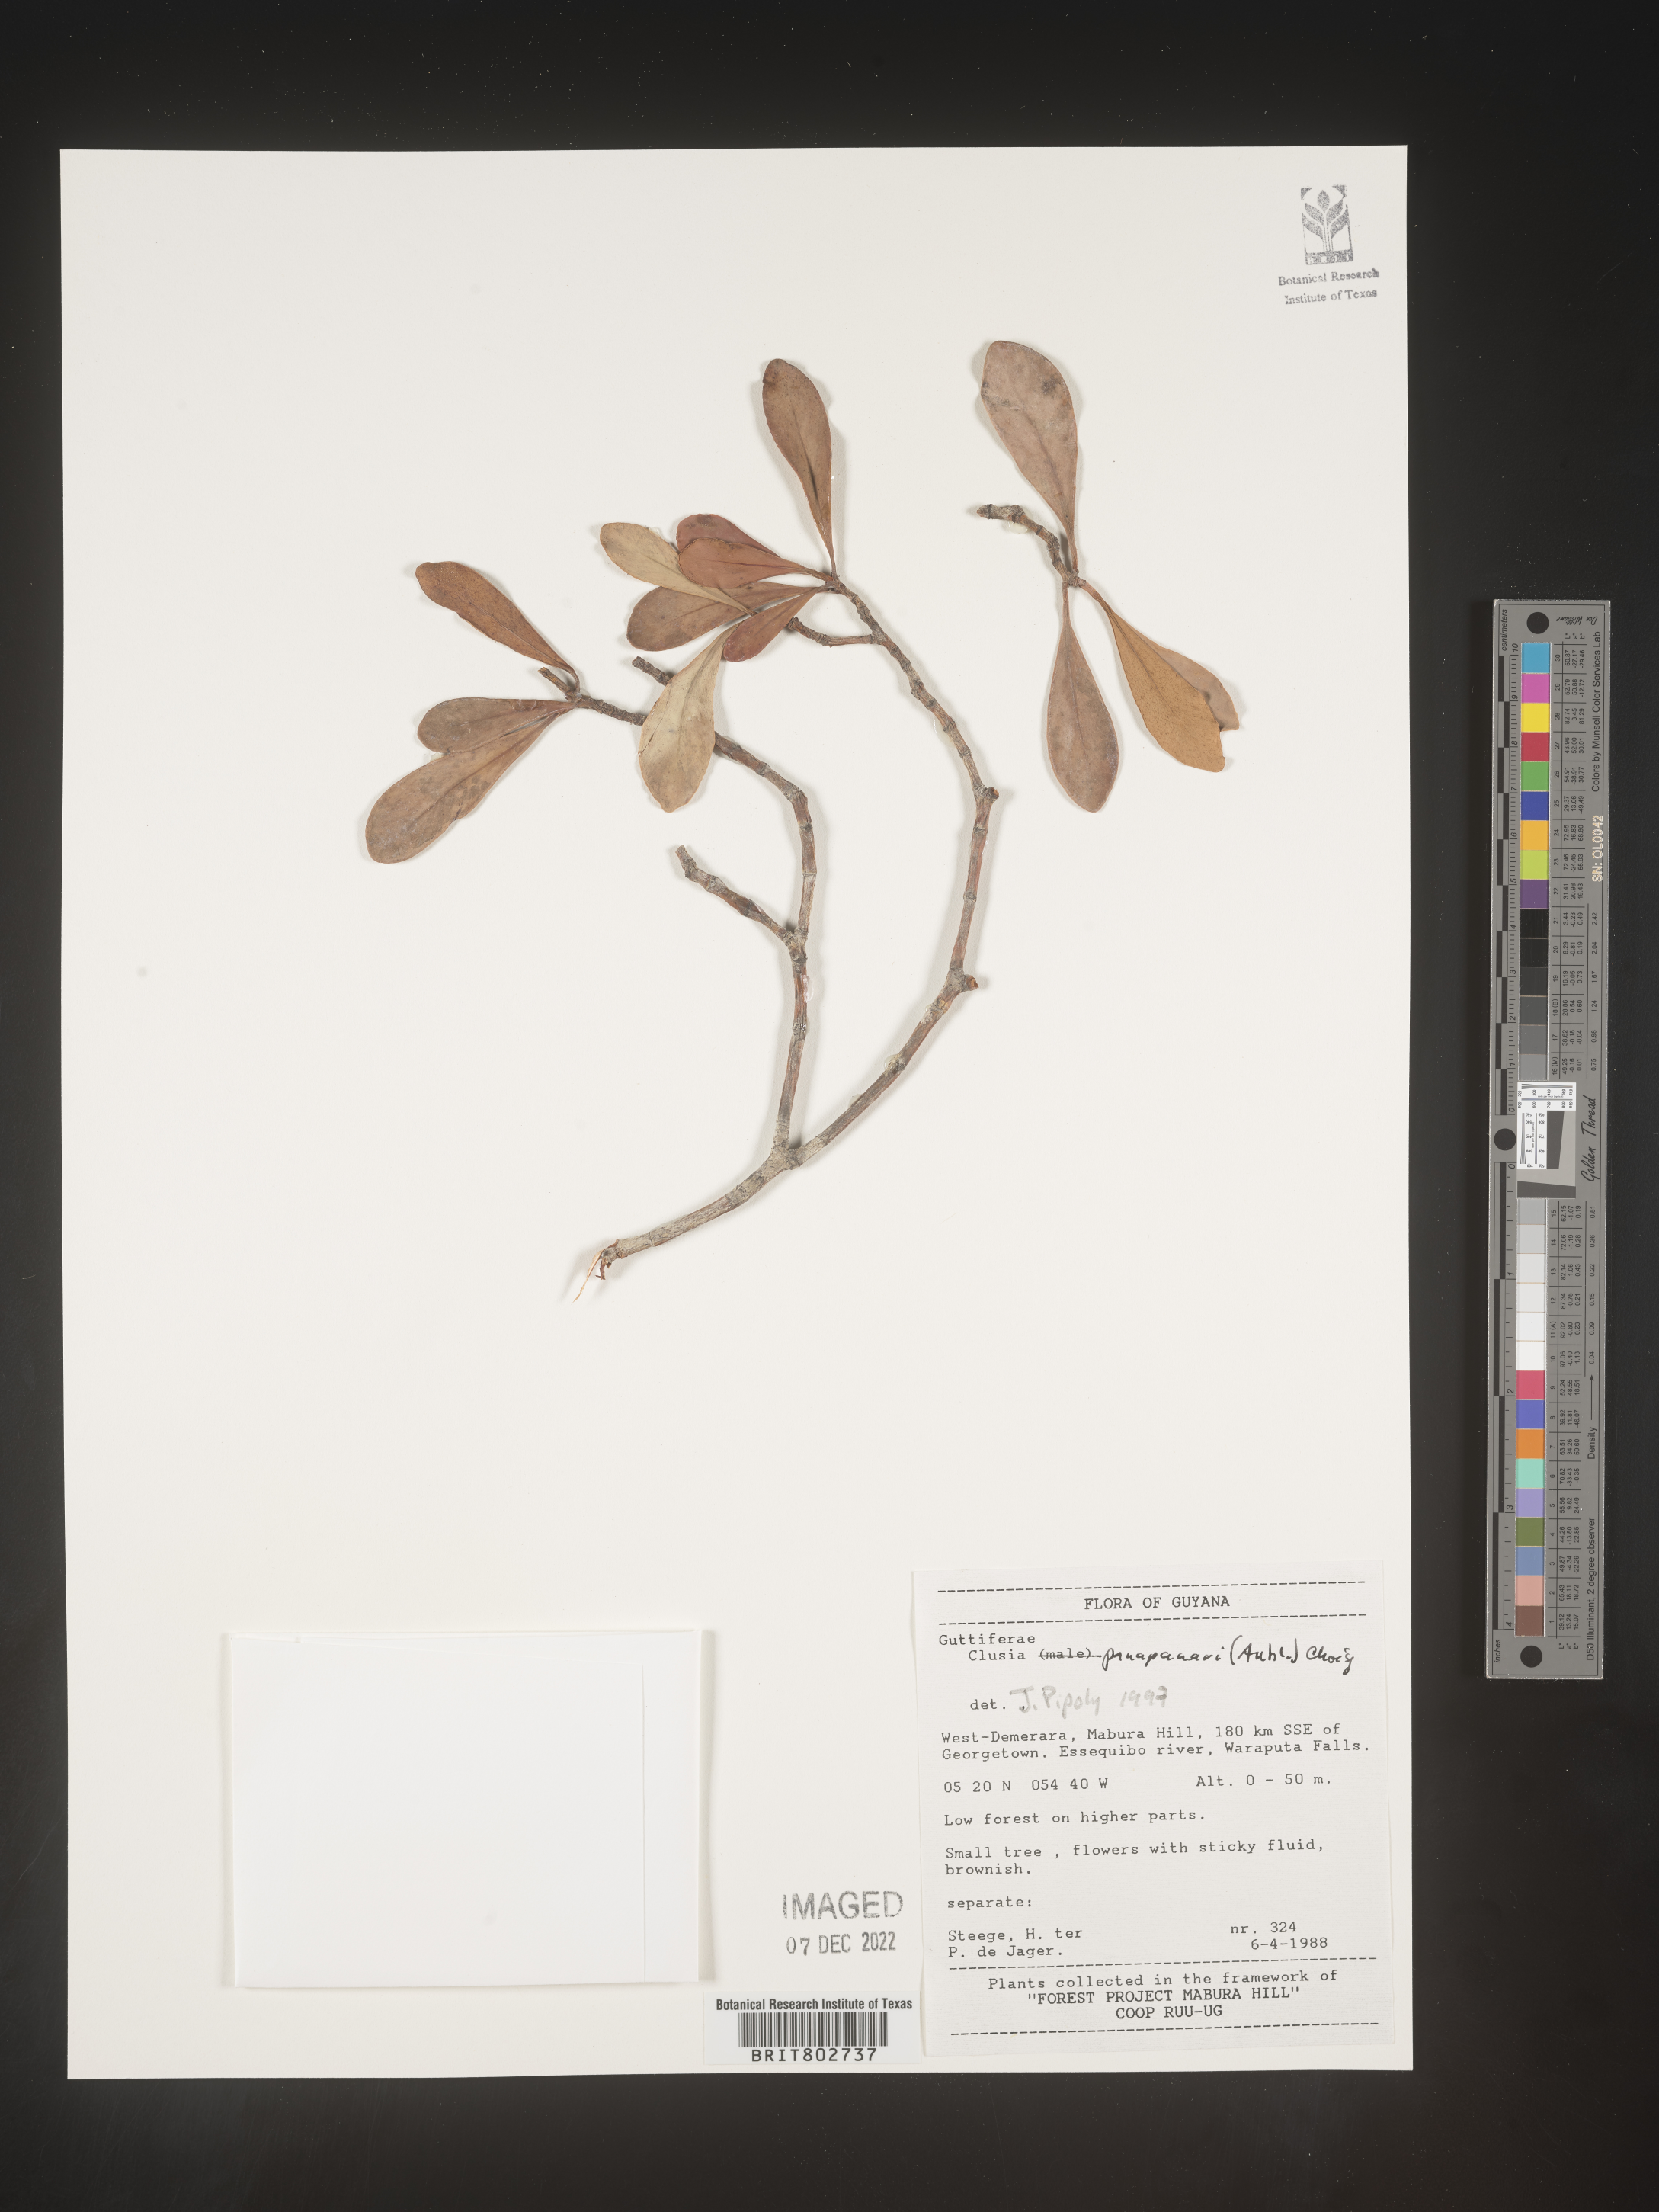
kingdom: Plantae
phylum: Tracheophyta
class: Magnoliopsida
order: Malpighiales
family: Clusiaceae
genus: Clusia
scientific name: Clusia panapanari
